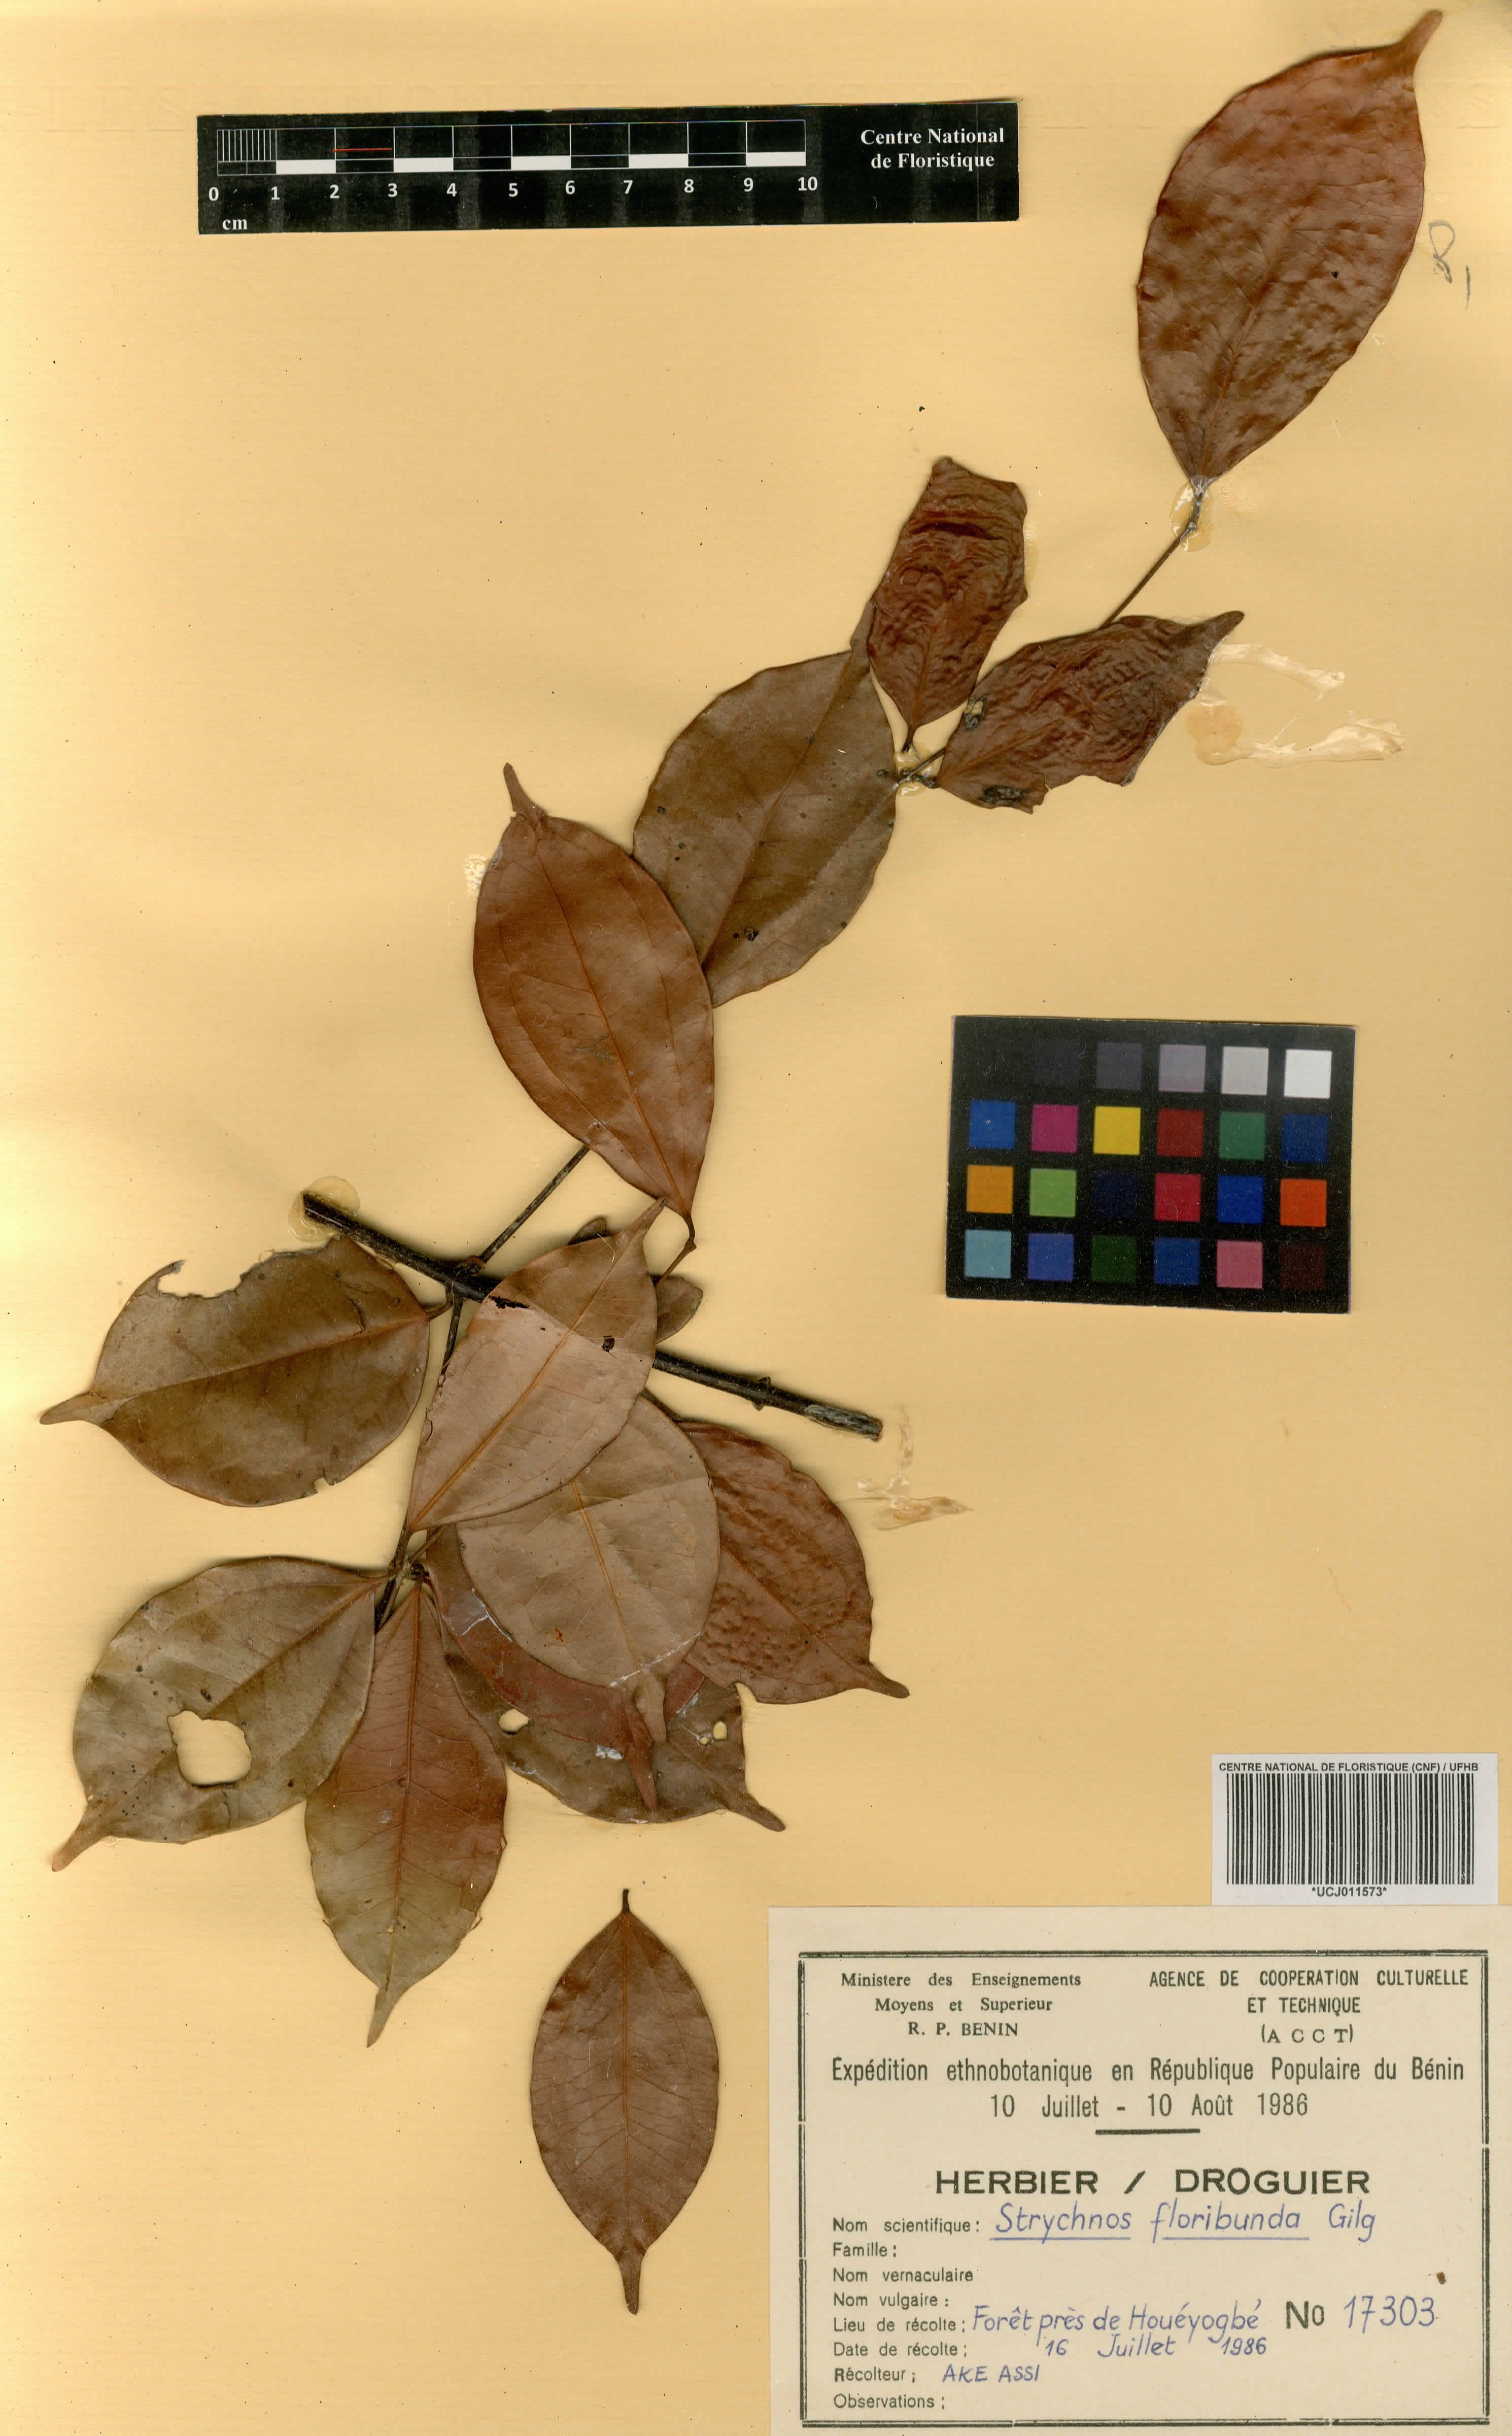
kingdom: Plantae
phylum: Tracheophyta
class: Magnoliopsida
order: Gentianales
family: Loganiaceae
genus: Strychnos
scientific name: Strychnos floribunda
